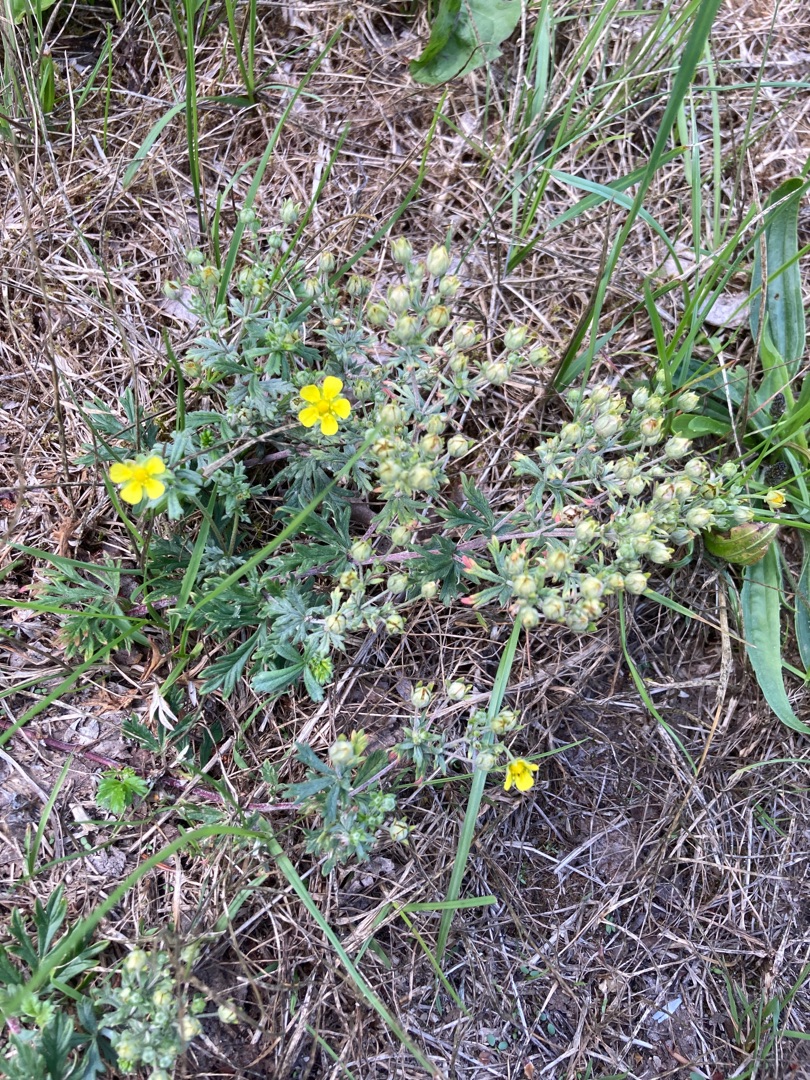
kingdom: Plantae
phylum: Tracheophyta
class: Magnoliopsida
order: Rosales
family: Rosaceae
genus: Potentilla
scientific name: Potentilla argentea
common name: Sølv-potentil
